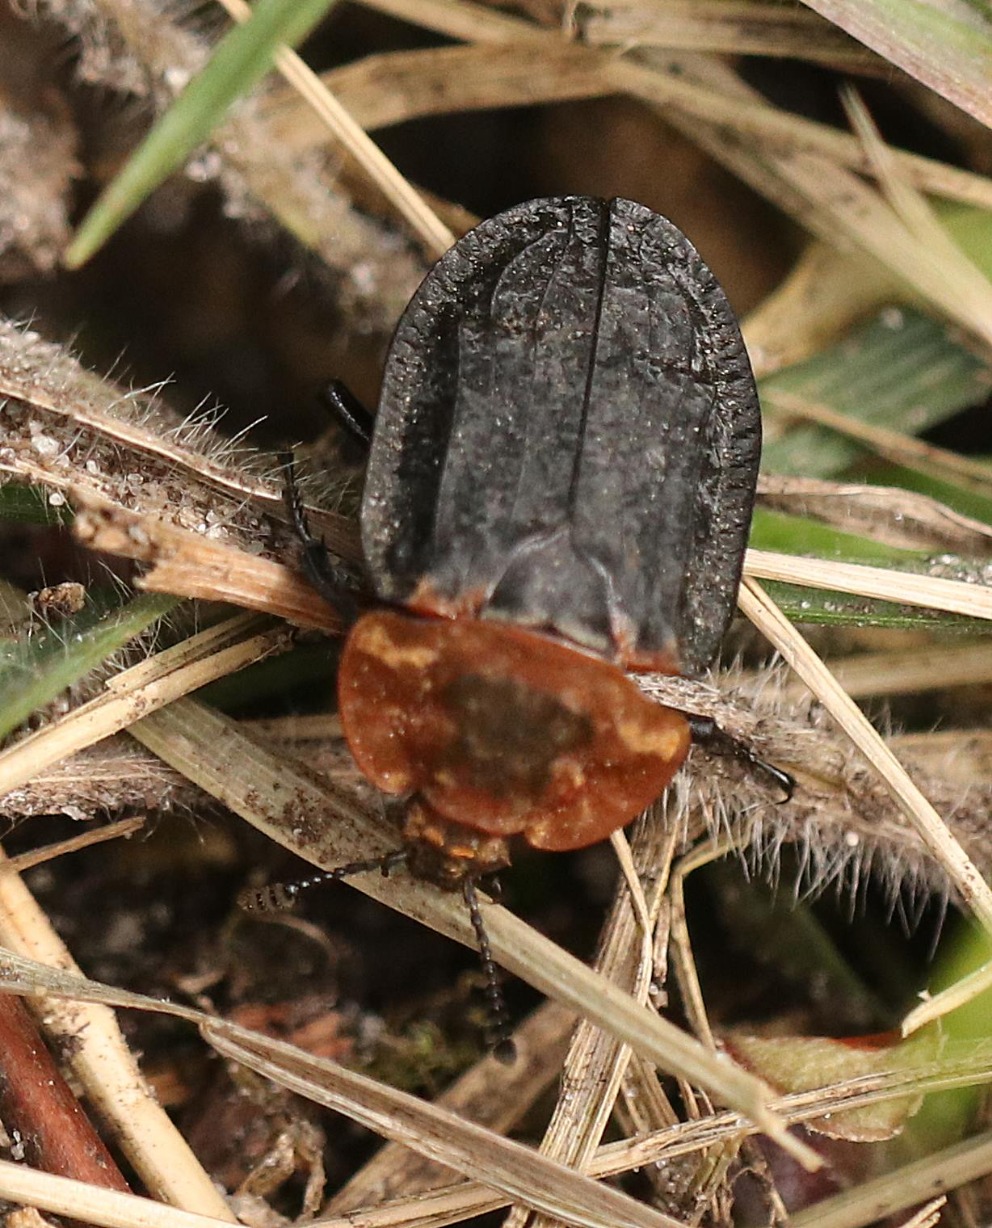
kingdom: Animalia
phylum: Arthropoda
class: Insecta
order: Coleoptera
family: Staphylinidae
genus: Oiceoptoma
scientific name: Oiceoptoma thoracicum
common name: Rødbrystet ådselbille
